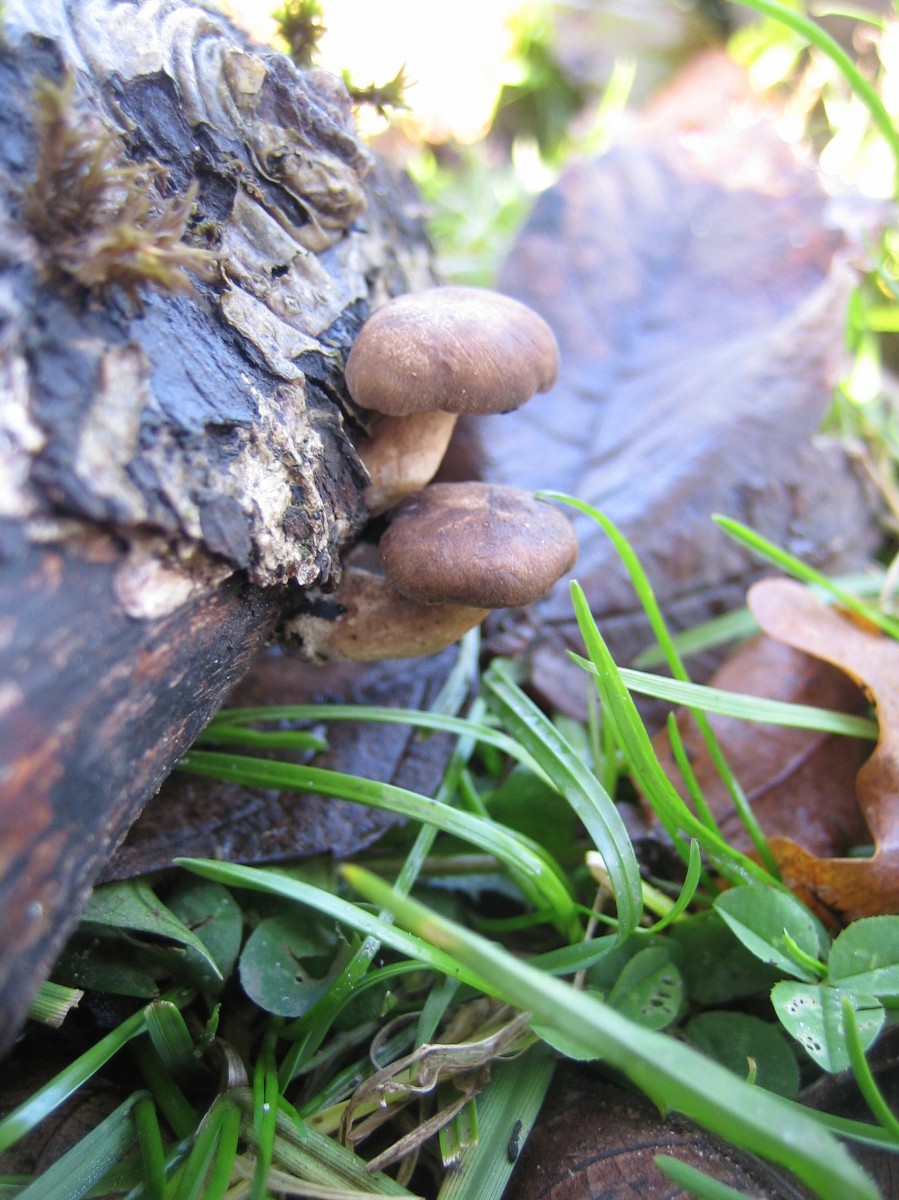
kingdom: Fungi
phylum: Basidiomycota
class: Agaricomycetes
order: Polyporales
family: Polyporaceae
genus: Lentinus
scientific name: Lentinus brumalis
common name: vinter-stilkporesvamp
